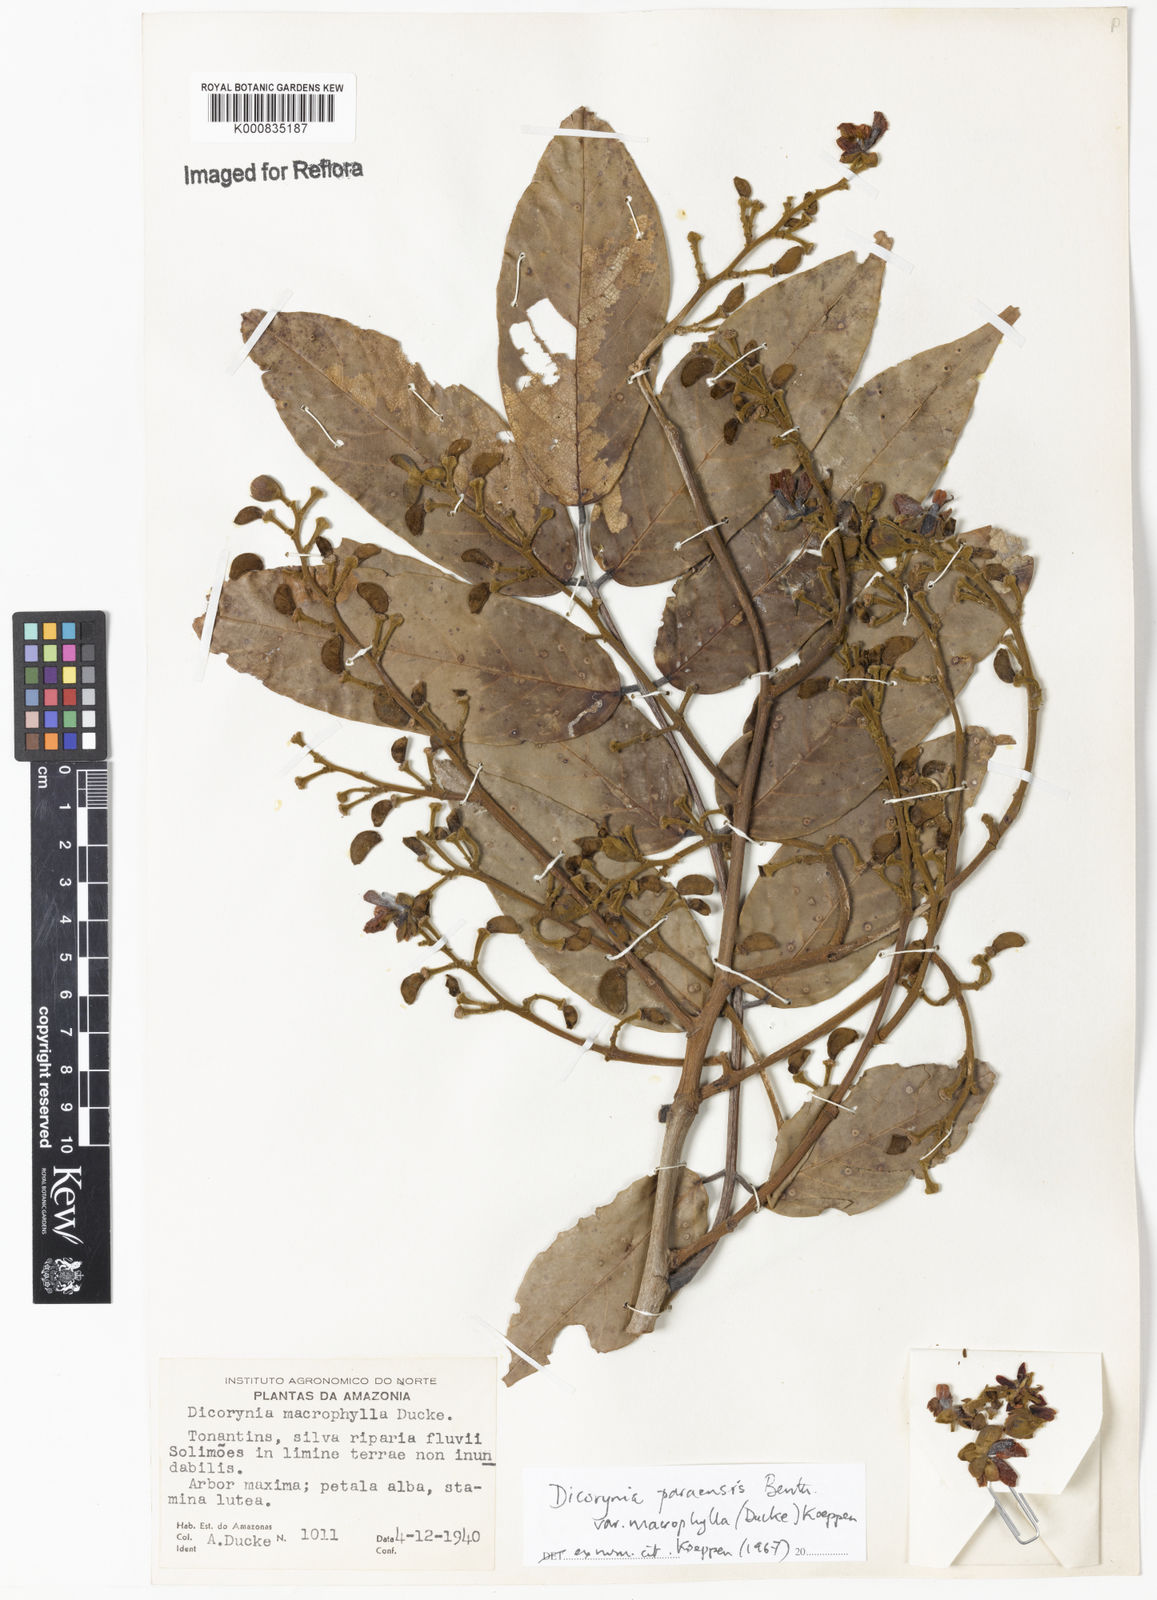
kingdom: Plantae
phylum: Tracheophyta
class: Magnoliopsida
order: Fabales
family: Fabaceae
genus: Dicorynia
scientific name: Dicorynia paraensis
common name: Angelique
